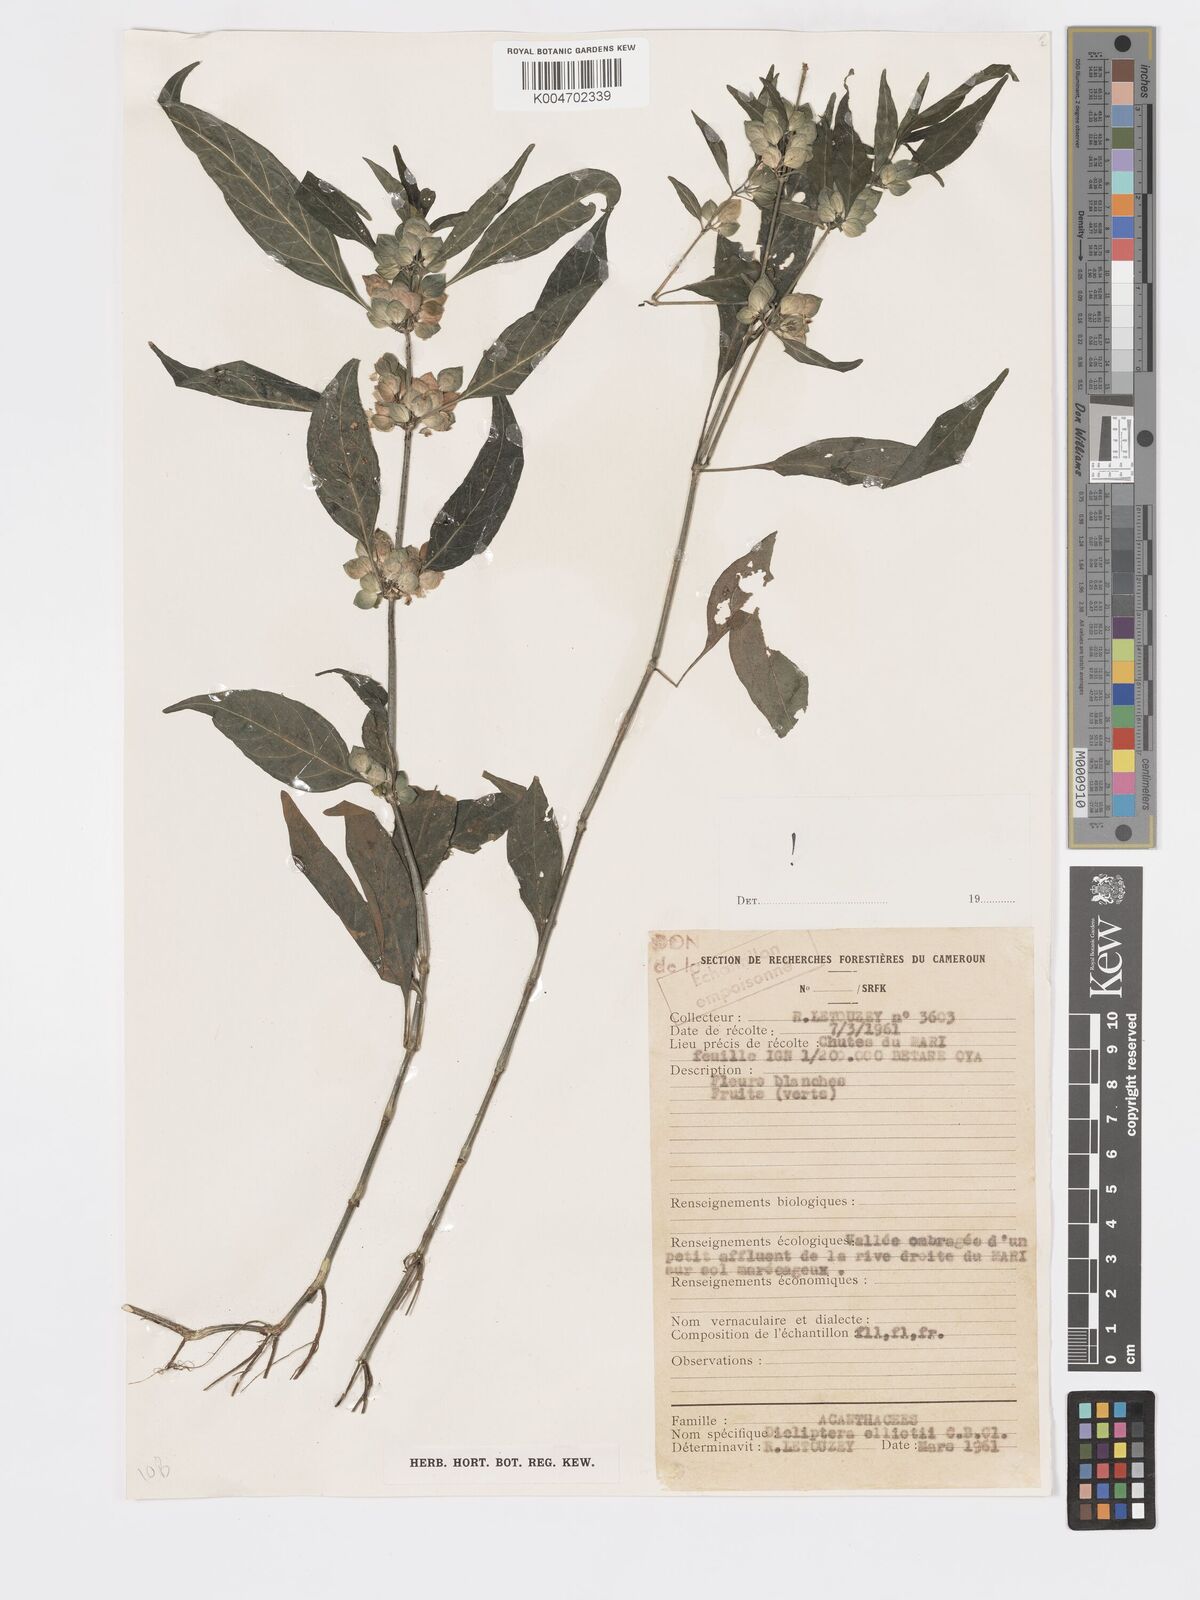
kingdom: Plantae
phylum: Tracheophyta
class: Magnoliopsida
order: Lamiales
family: Acanthaceae
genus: Dicliptera
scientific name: Dicliptera elliotii
